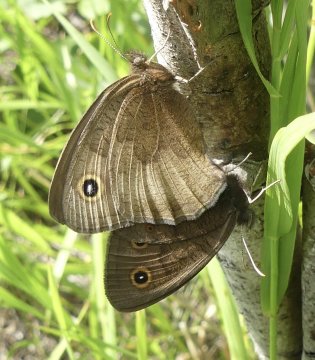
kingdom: Animalia
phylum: Arthropoda
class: Insecta
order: Lepidoptera
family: Nymphalidae
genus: Cercyonis
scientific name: Cercyonis pegala
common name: Common Wood-Nymph
